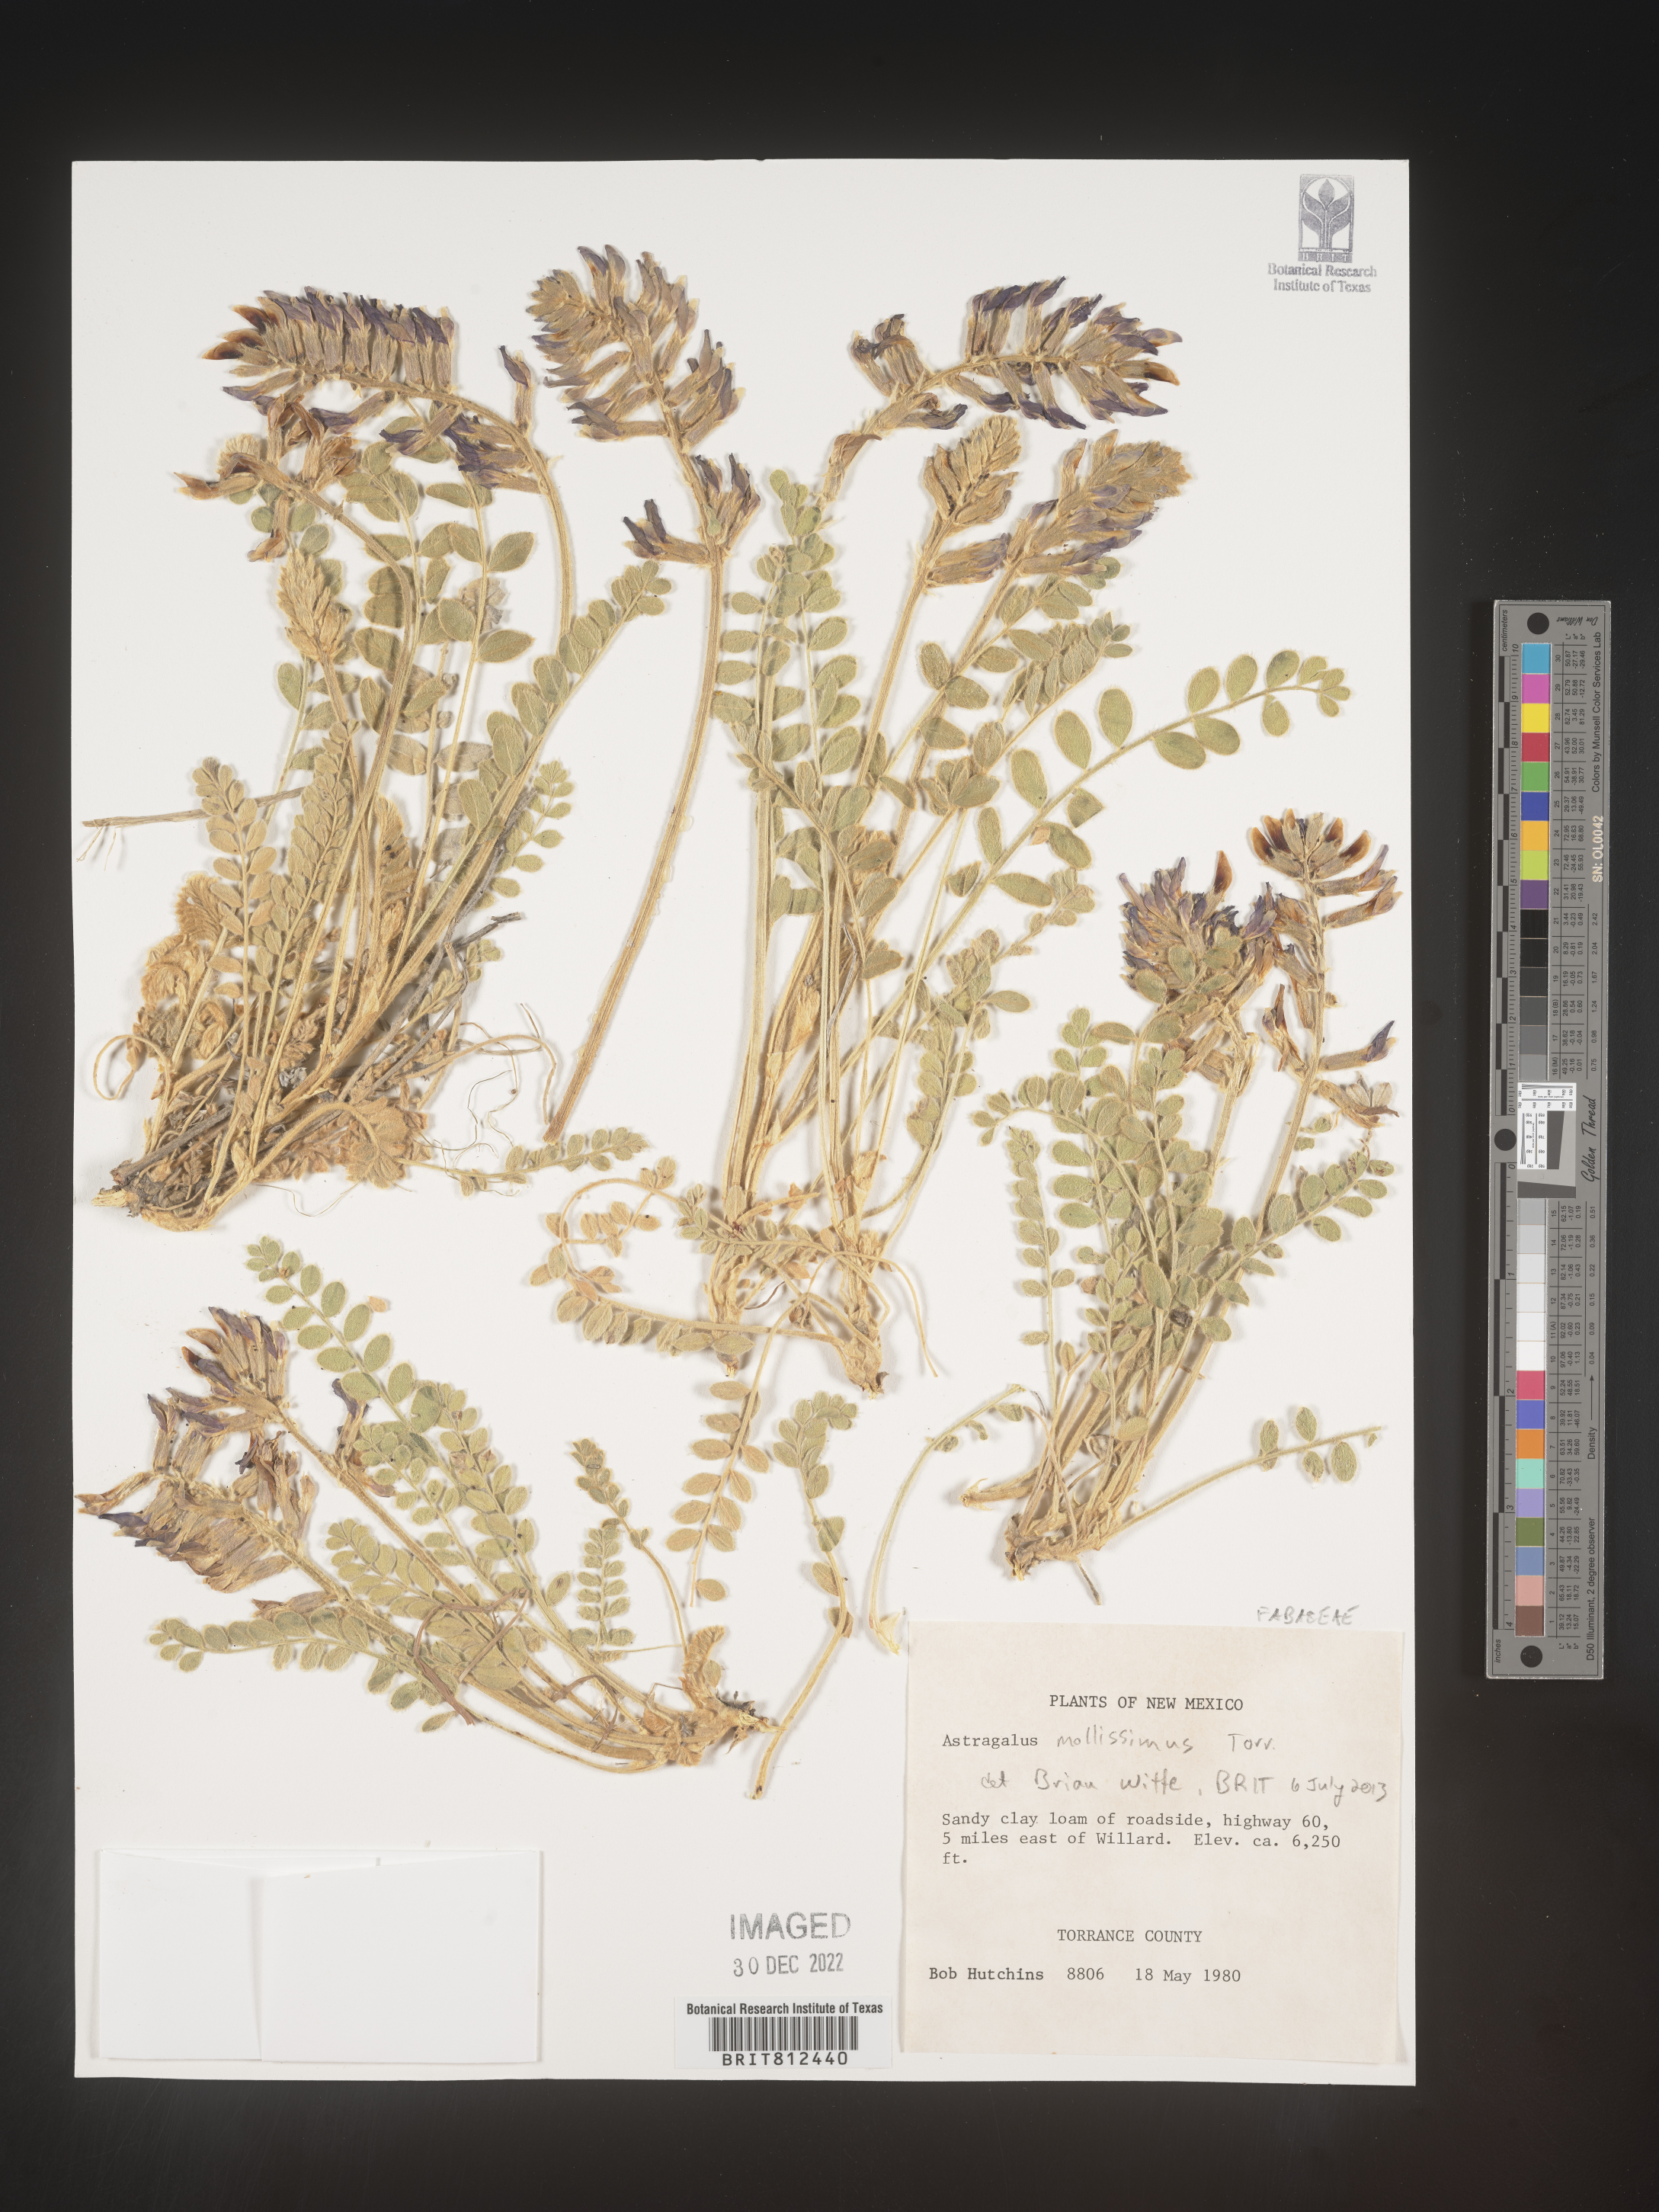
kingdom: Plantae
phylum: Tracheophyta
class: Magnoliopsida
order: Fabales
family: Fabaceae
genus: Astragalus
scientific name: Astragalus
